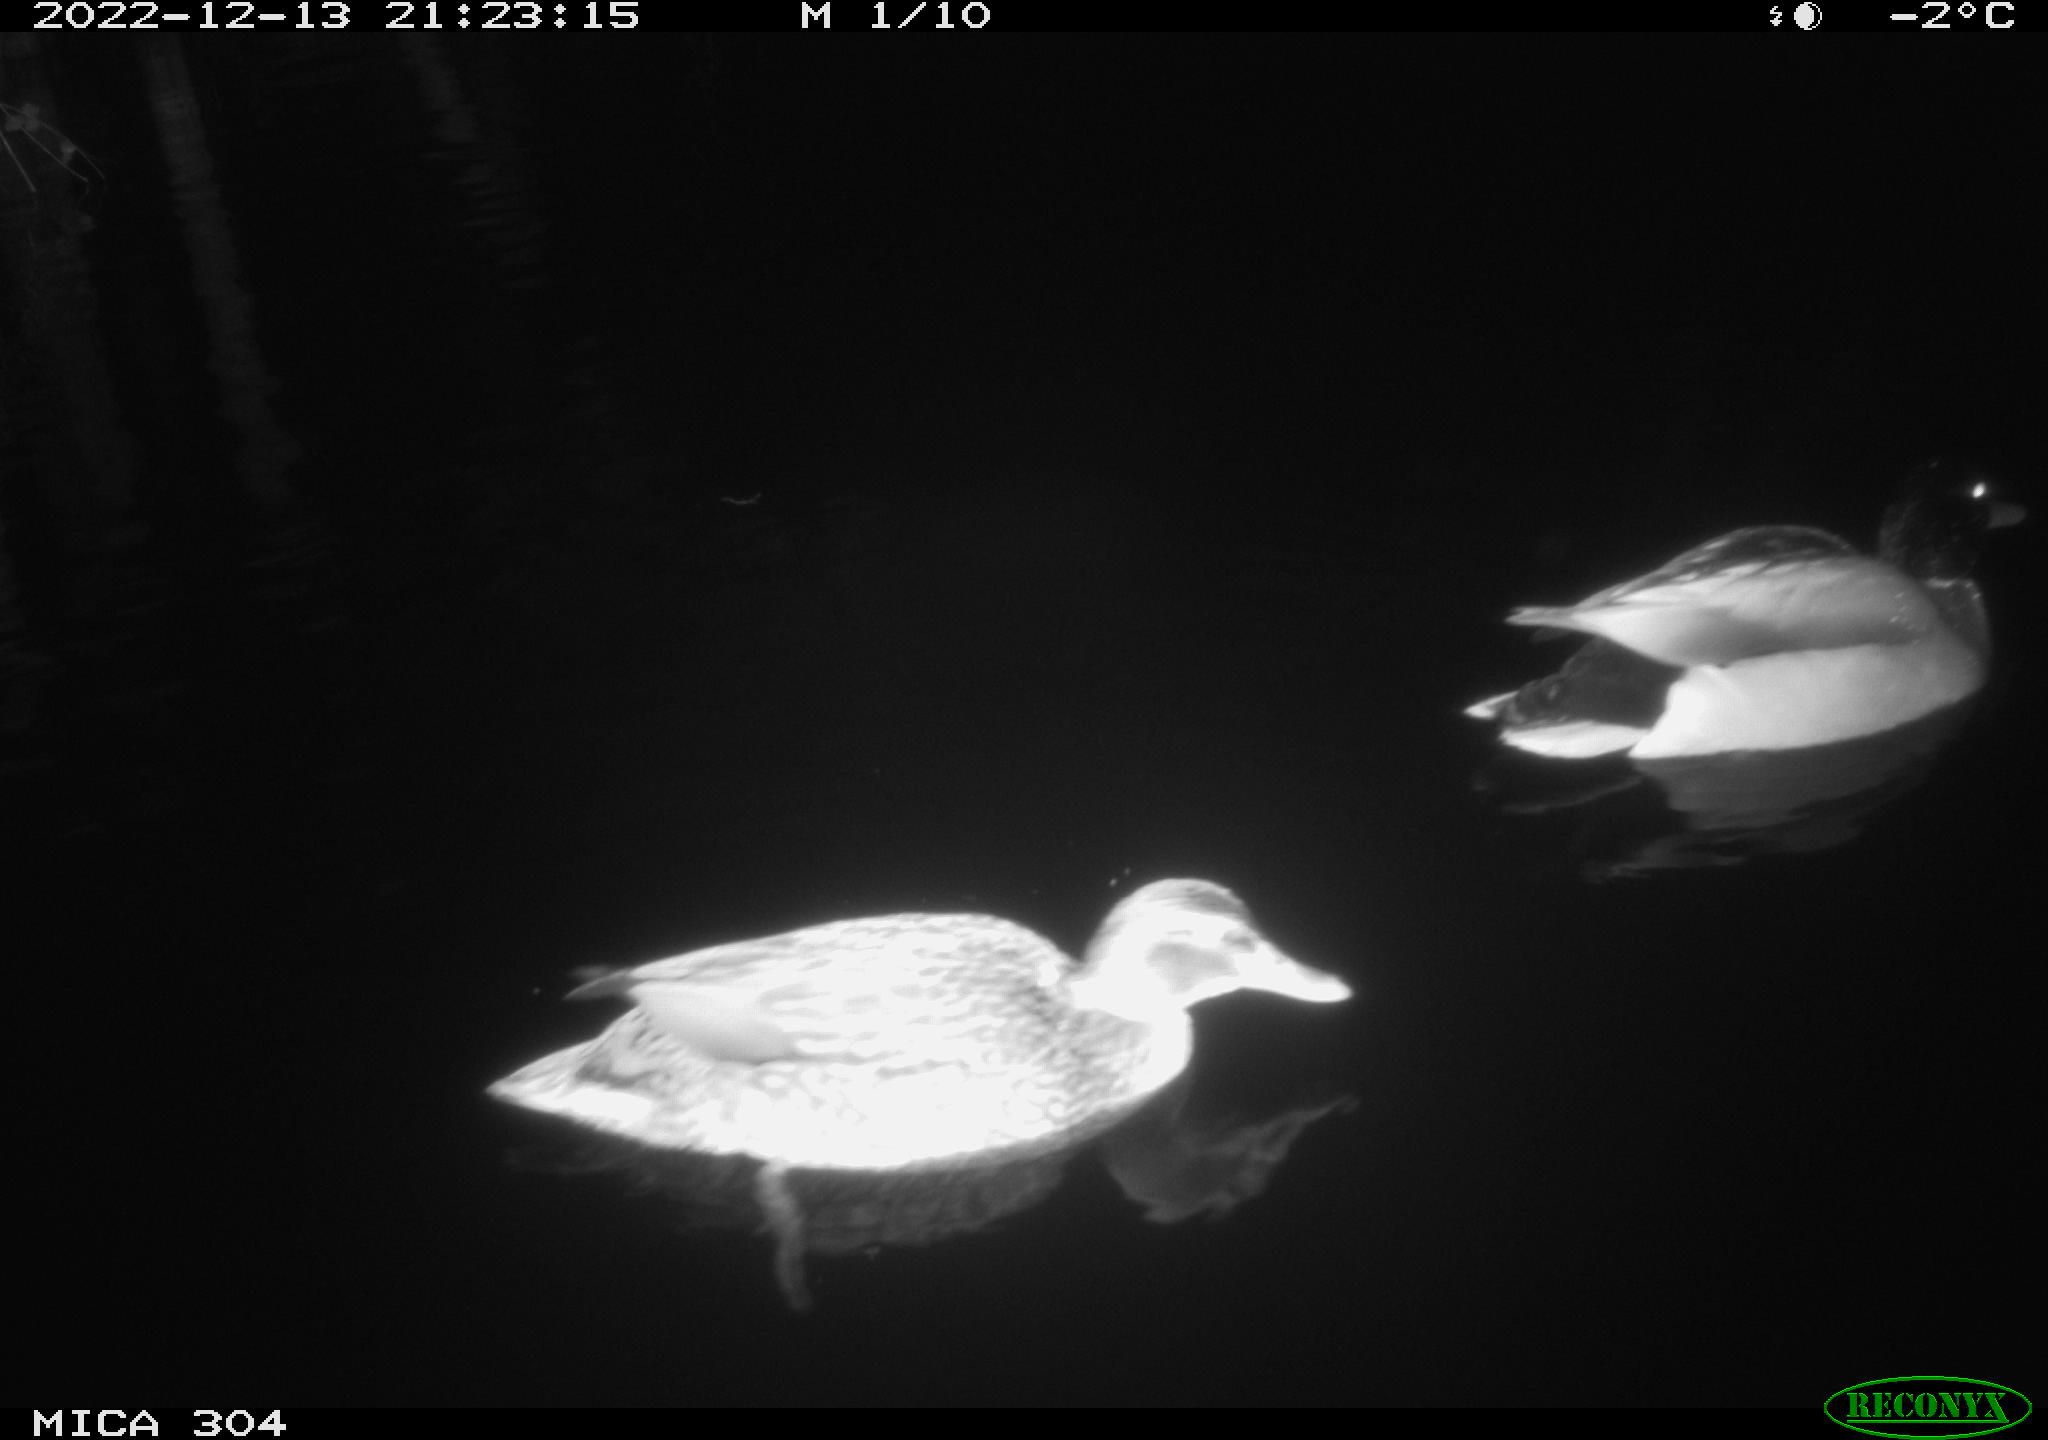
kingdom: Animalia
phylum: Chordata
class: Aves
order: Anseriformes
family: Anatidae
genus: Anas
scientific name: Anas
